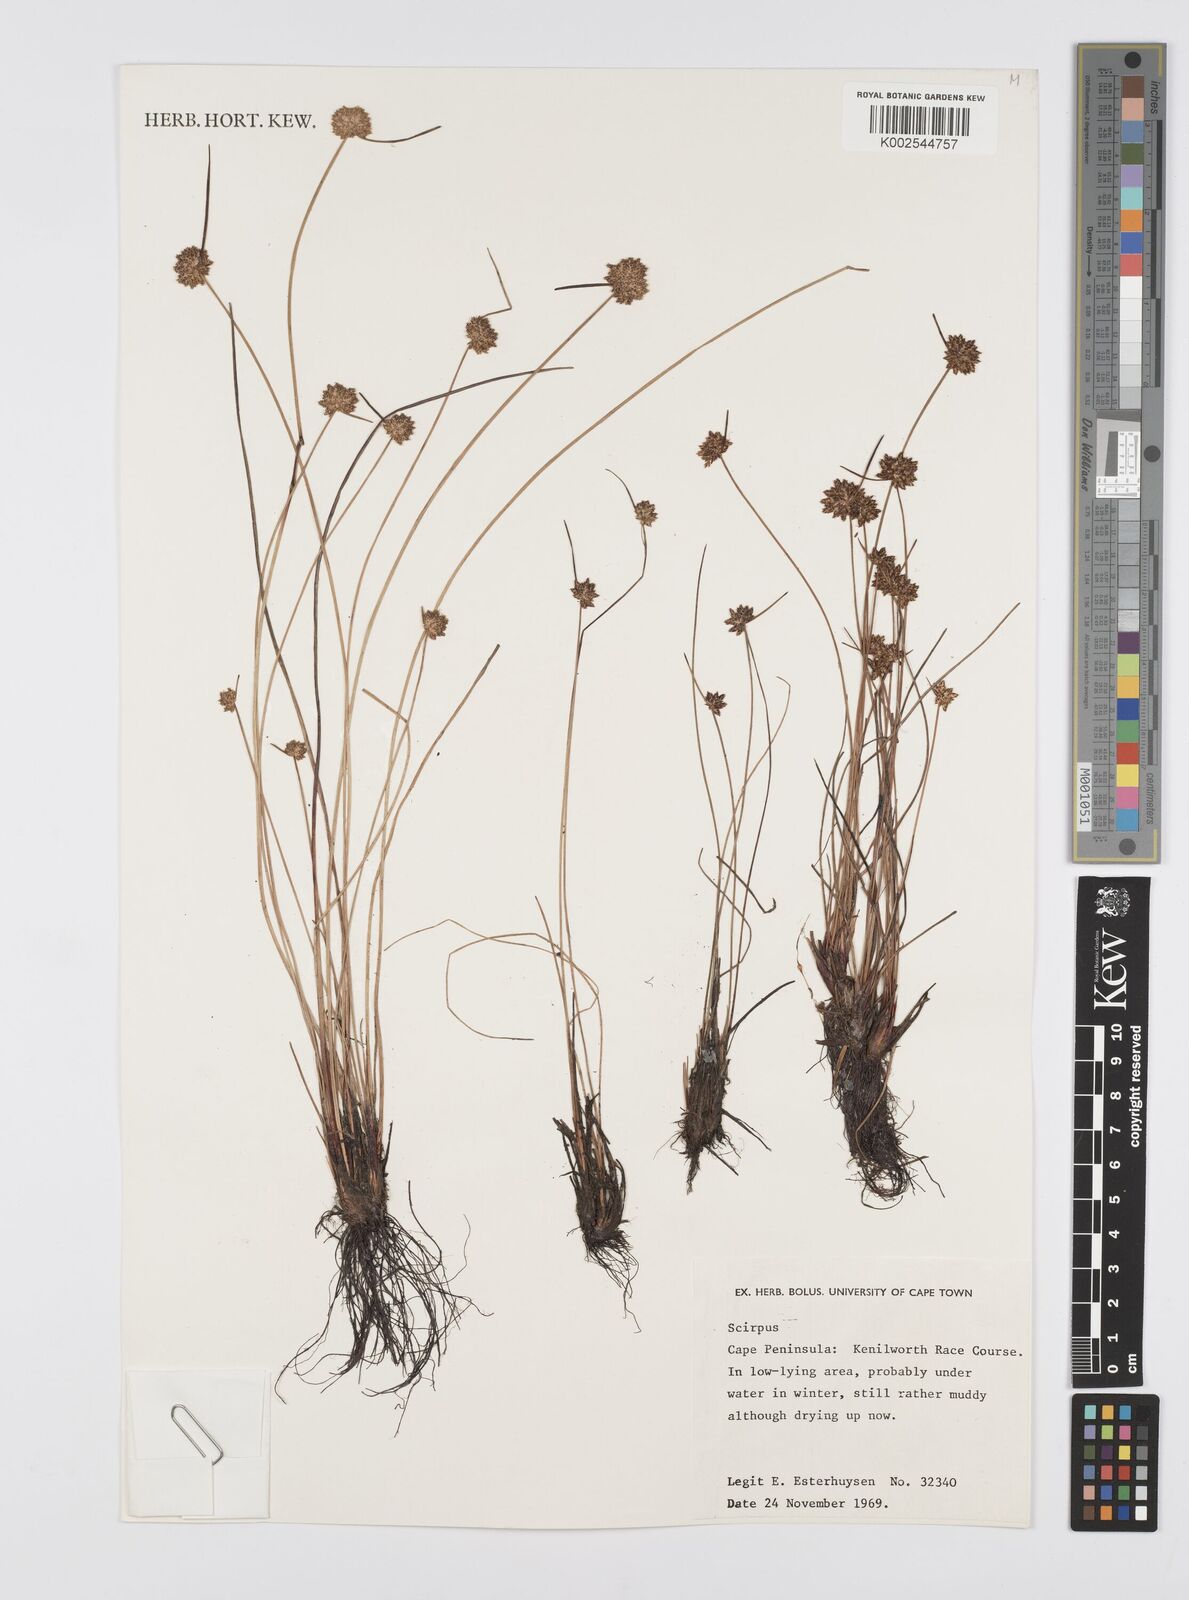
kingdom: Plantae
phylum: Tracheophyta
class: Liliopsida
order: Poales
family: Cyperaceae
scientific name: Cyperaceae
